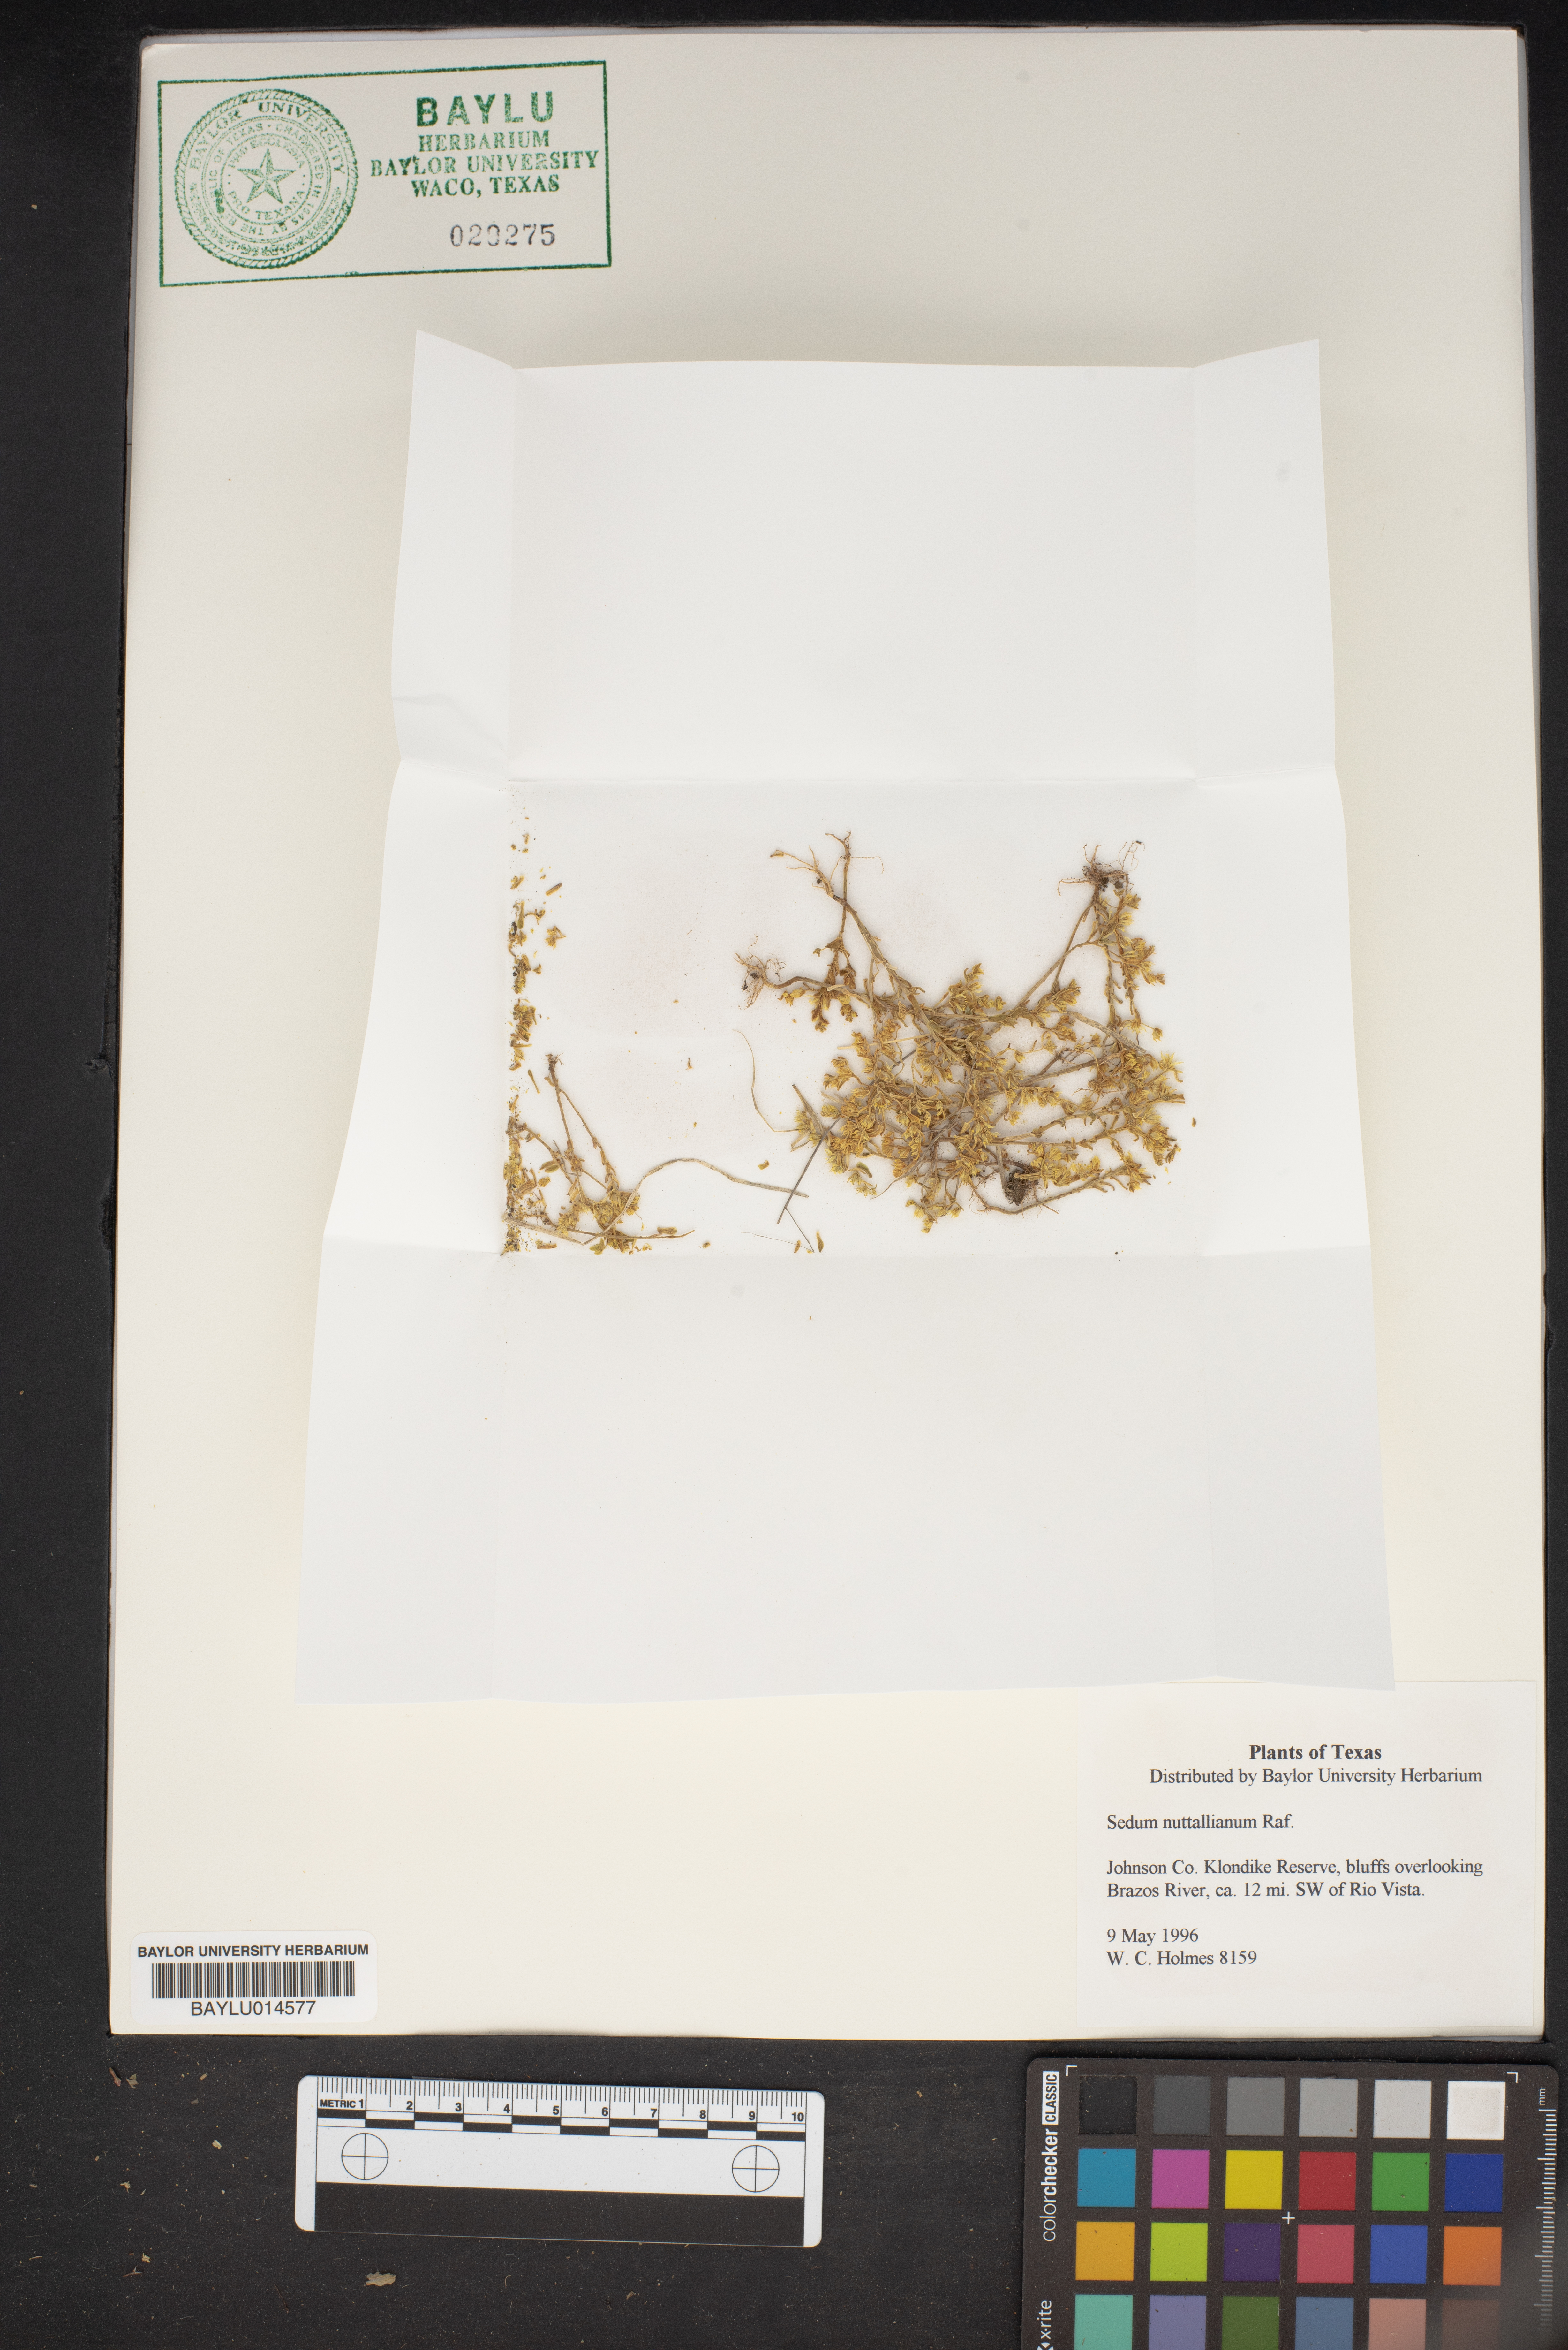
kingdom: Plantae
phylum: Tracheophyta
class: Magnoliopsida
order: Saxifragales
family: Crassulaceae
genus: Sedum
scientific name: Sedum nuttallii
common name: Yellow stonecrop
